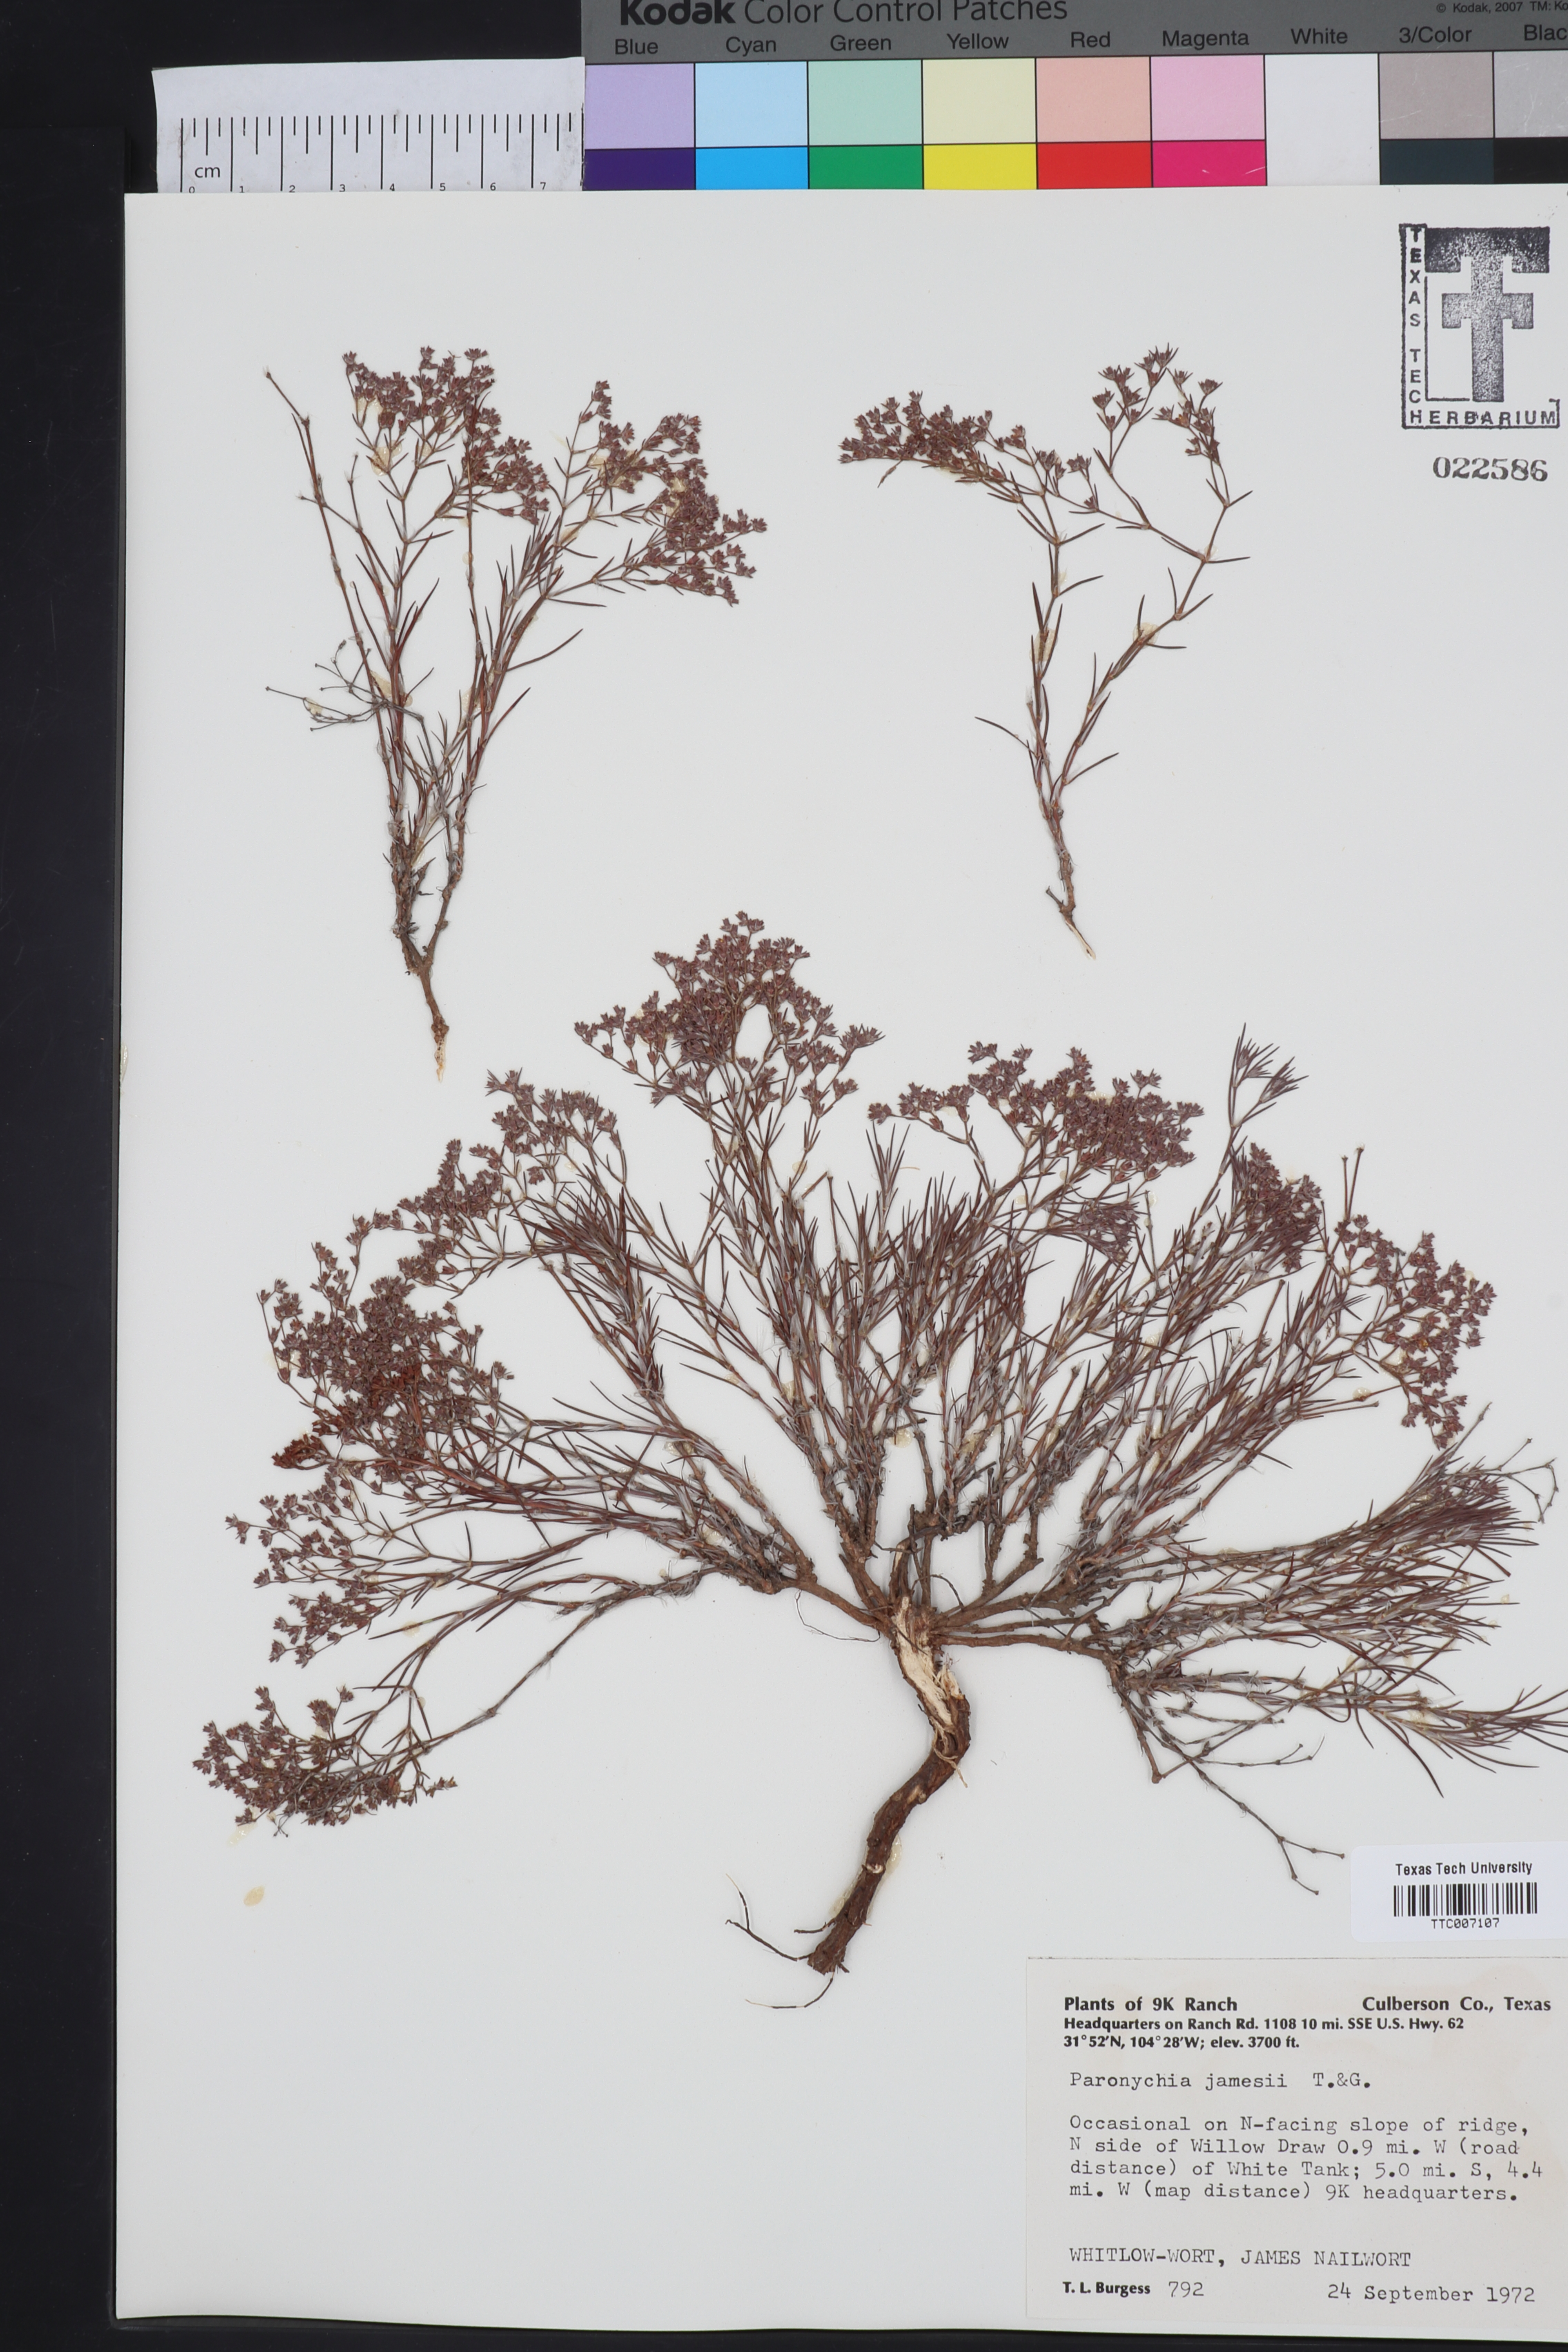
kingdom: Plantae
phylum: Tracheophyta
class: Magnoliopsida
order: Caryophyllales
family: Caryophyllaceae
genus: Paronychia
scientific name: Paronychia jamesii
